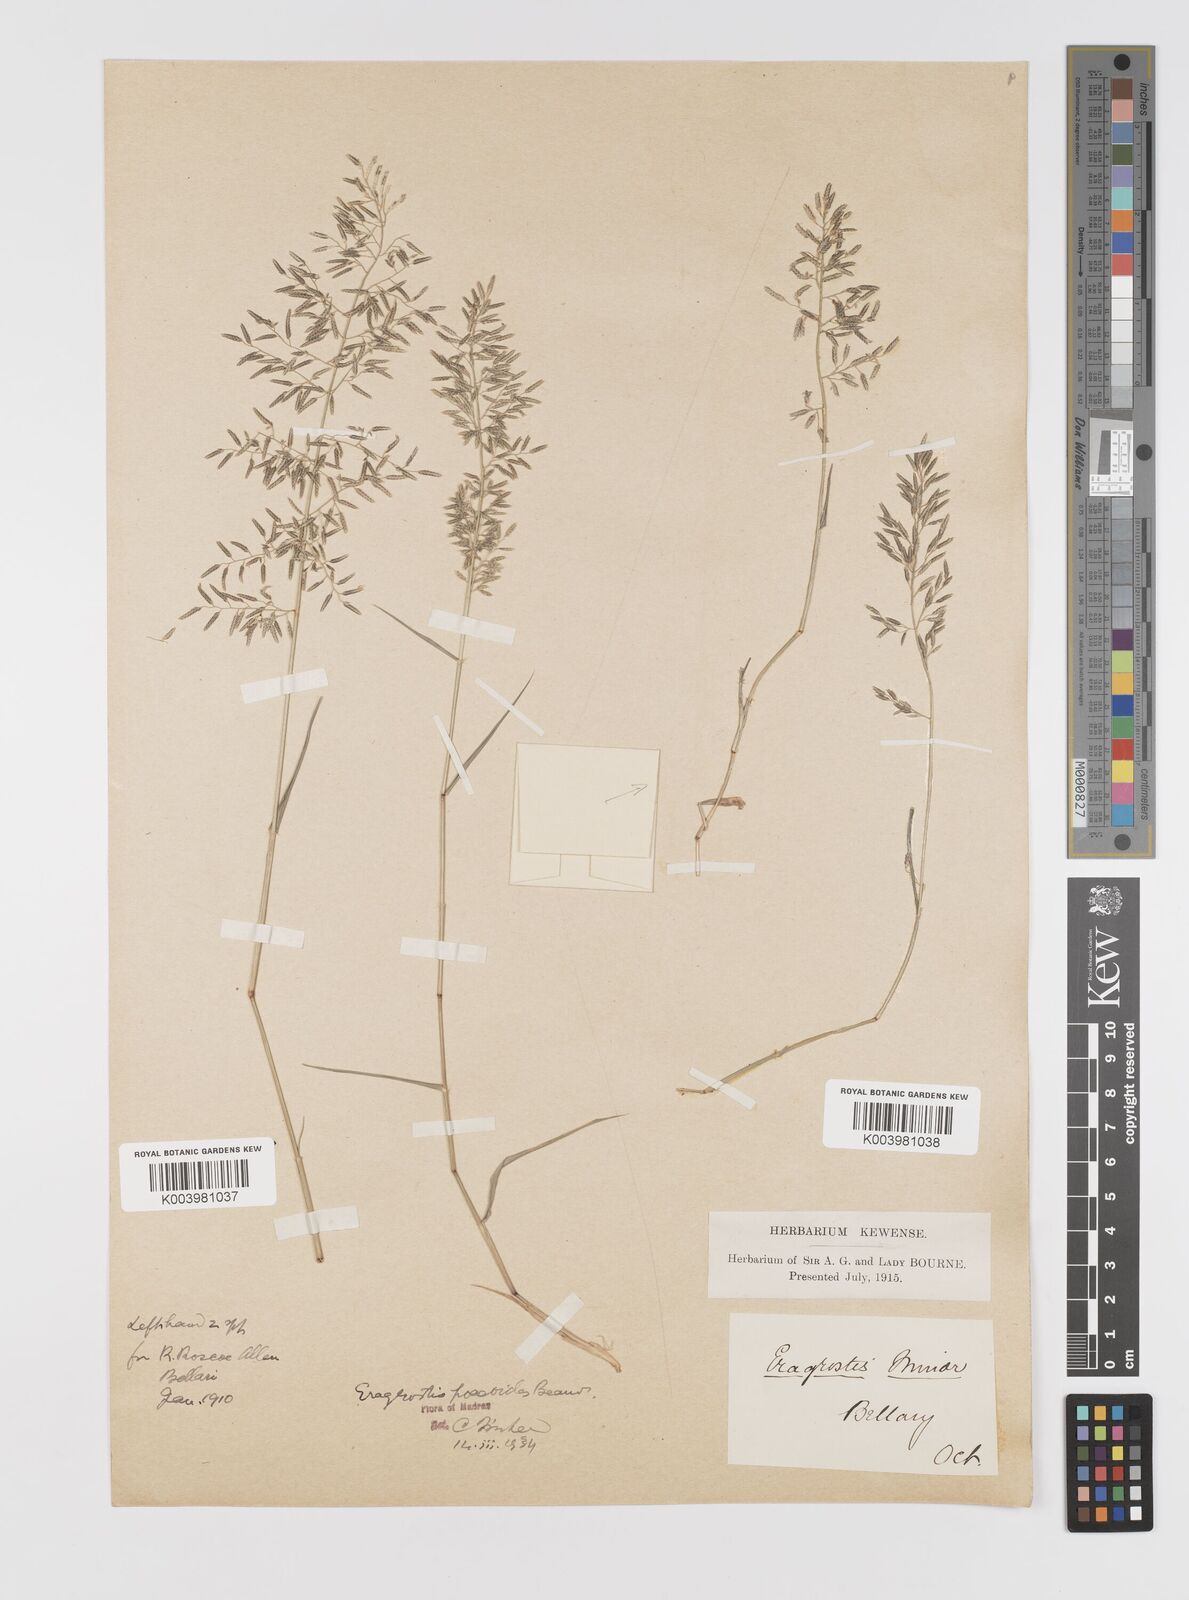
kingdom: Plantae
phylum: Tracheophyta
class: Liliopsida
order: Poales
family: Poaceae
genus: Eragrostis
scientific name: Eragrostis minor
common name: Small love-grass
